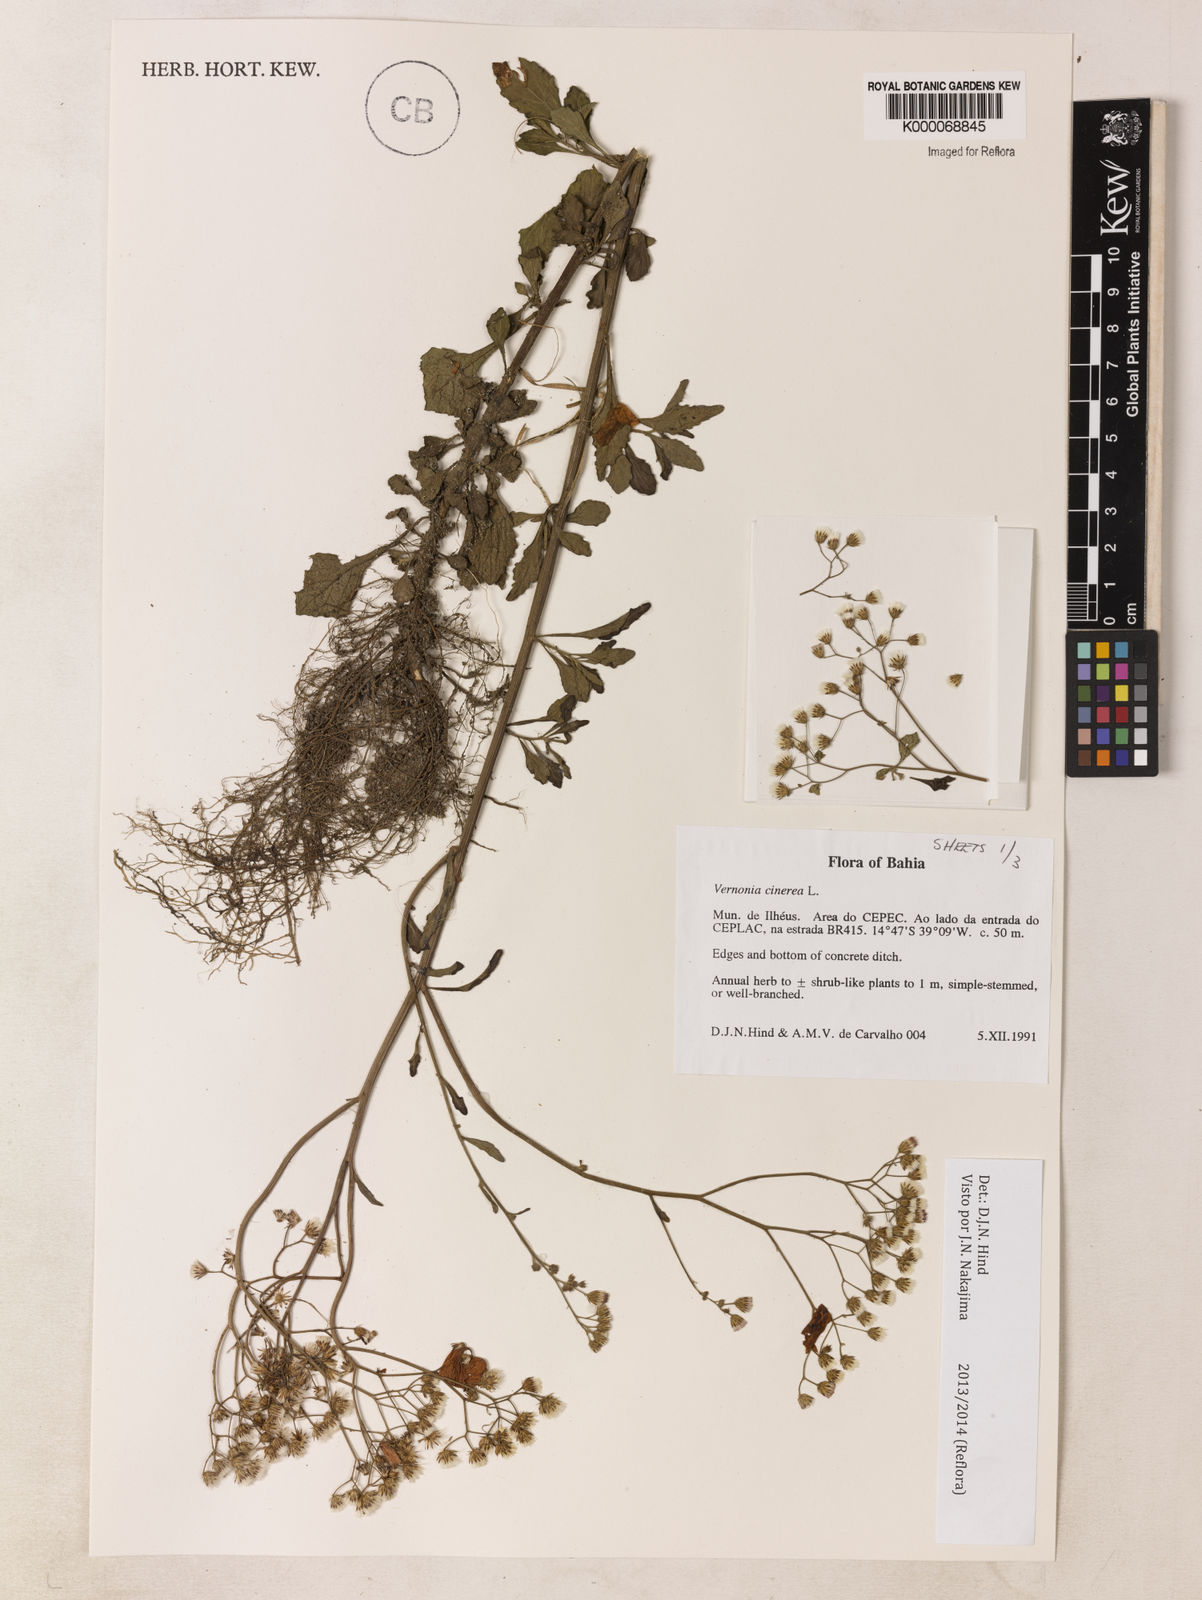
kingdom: Plantae
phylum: Tracheophyta
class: Magnoliopsida
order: Asterales
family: Asteraceae
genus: Cyanthillium
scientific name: Cyanthillium cinereum
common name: Little ironweed
